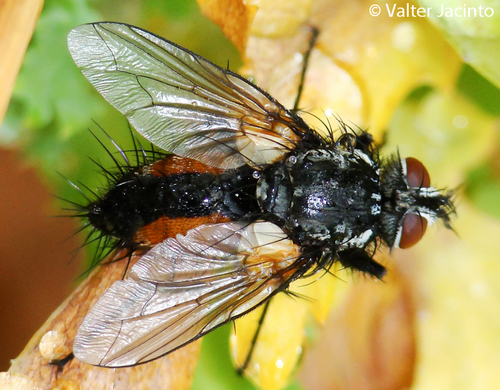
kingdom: Animalia
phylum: Arthropoda
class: Insecta
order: Diptera
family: Tachinidae
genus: Zeuxia
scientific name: Zeuxia zernyi
